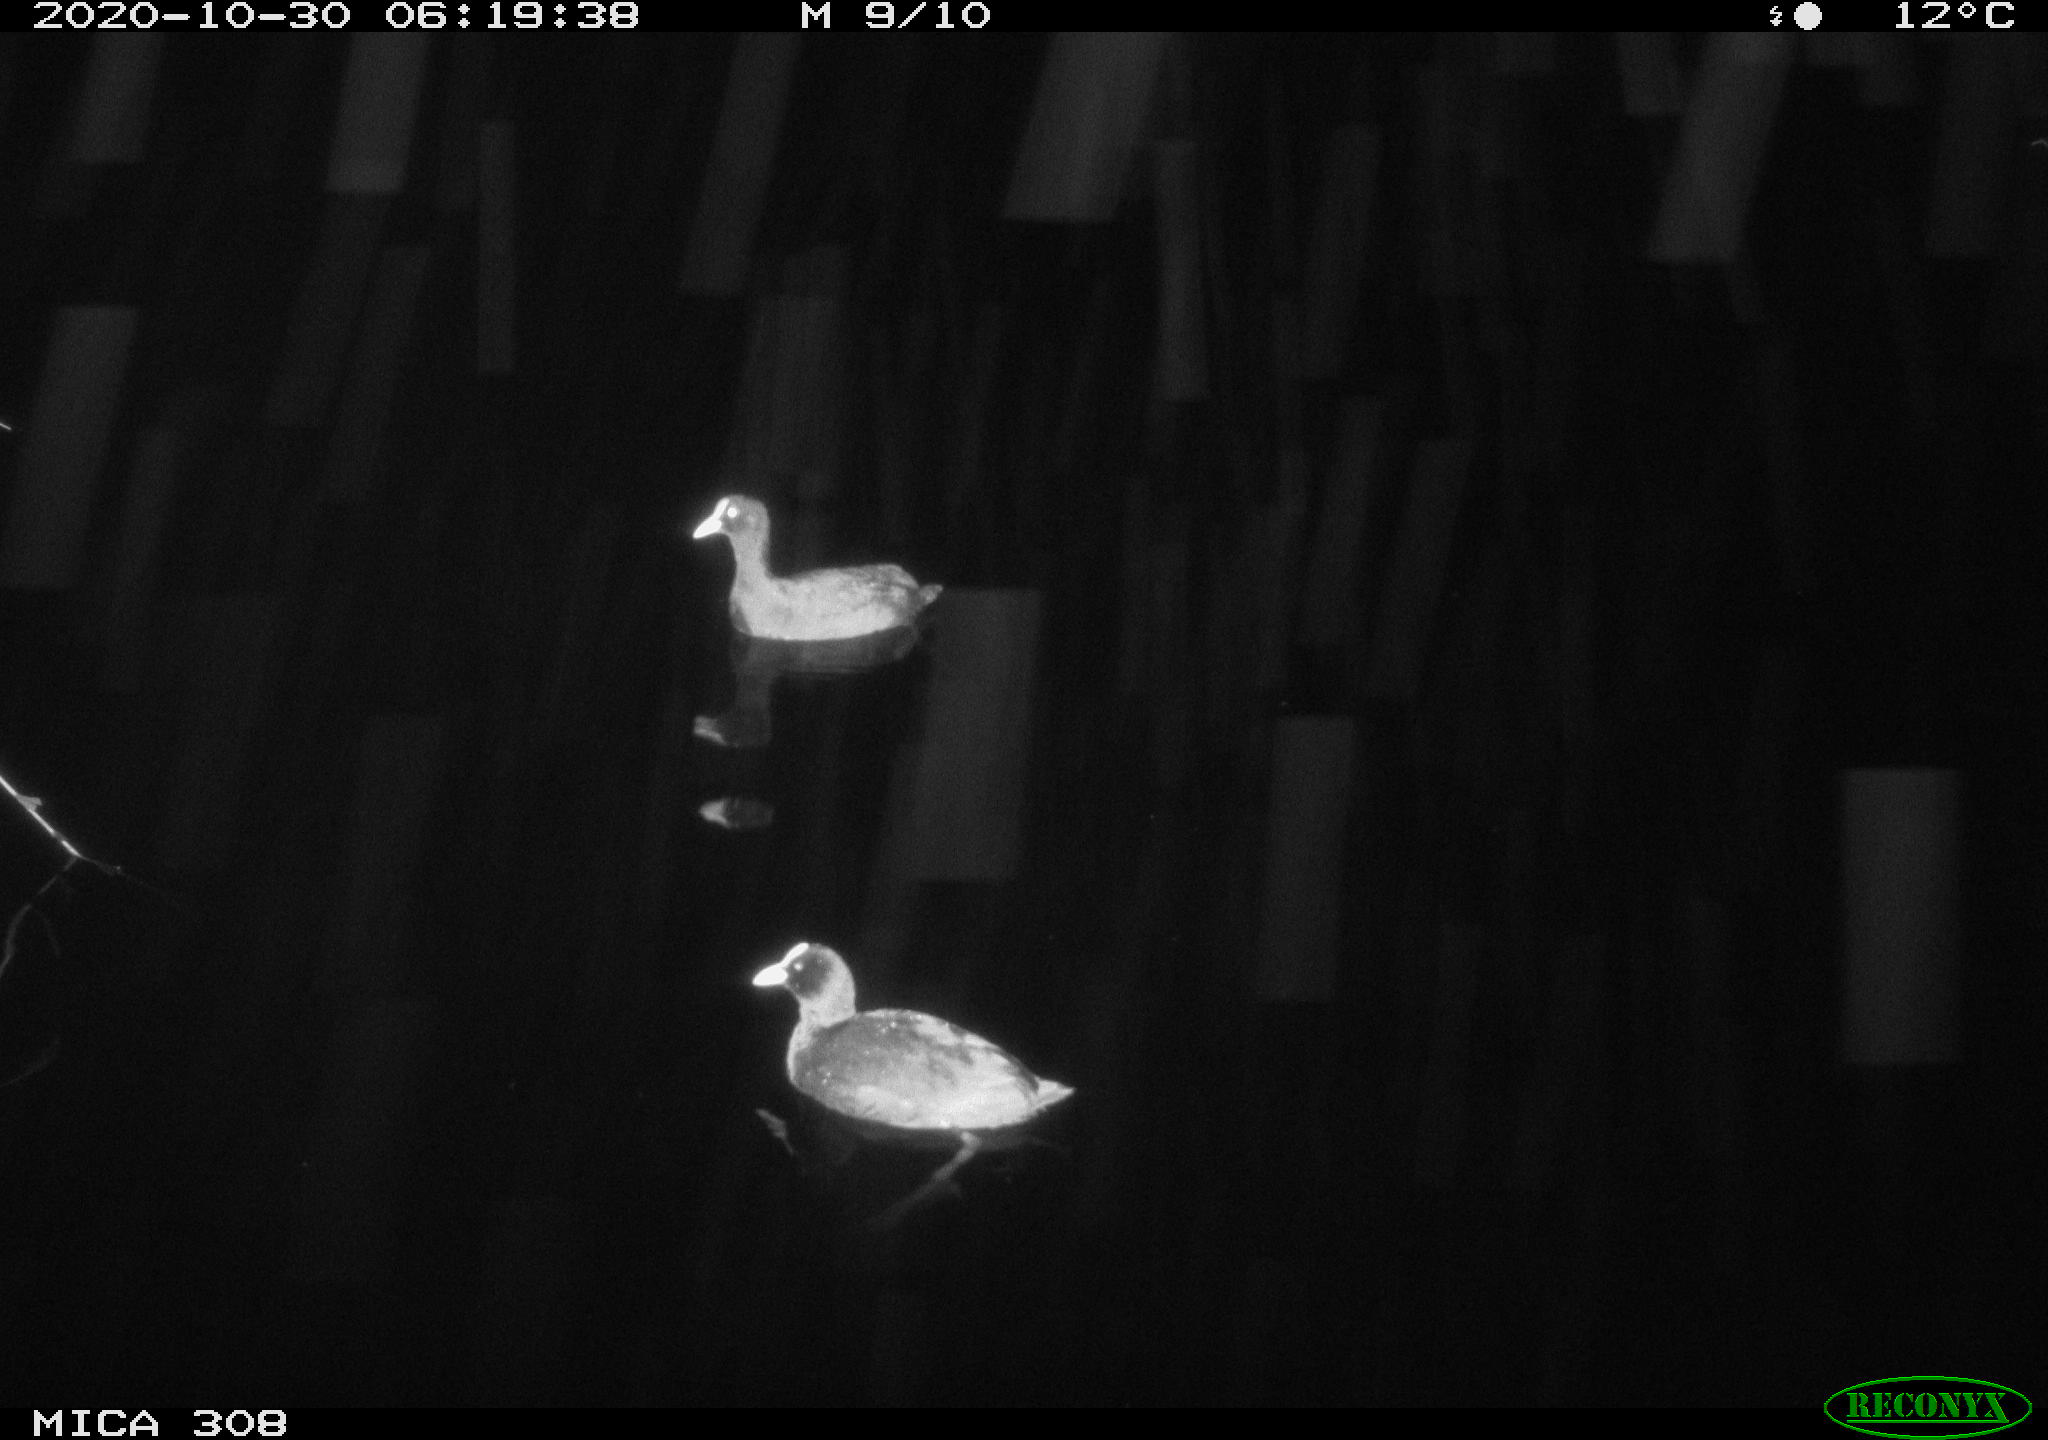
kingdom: Animalia
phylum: Chordata
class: Aves
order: Gruiformes
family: Rallidae
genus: Fulica
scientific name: Fulica atra
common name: Eurasian coot
